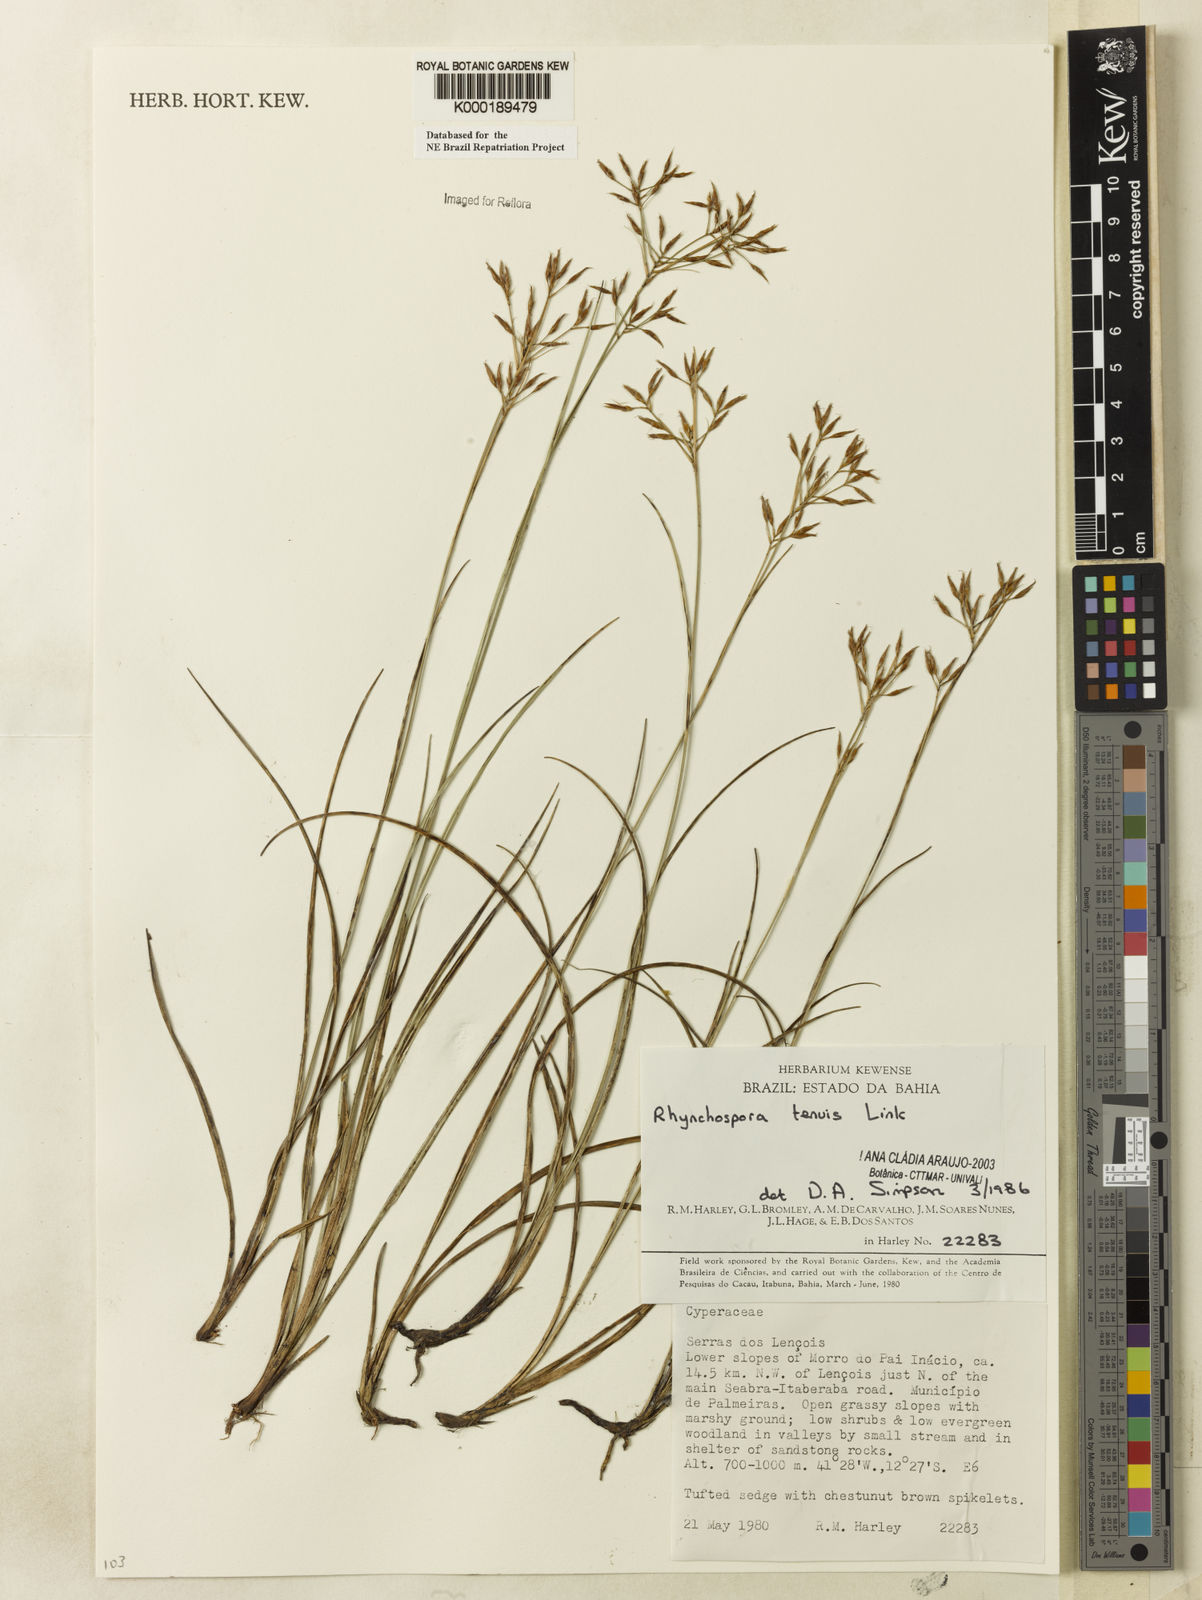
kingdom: Plantae
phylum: Tracheophyta
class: Liliopsida
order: Poales
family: Cyperaceae
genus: Rhynchospora
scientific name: Rhynchospora tenuis
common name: Quill beaksedge
